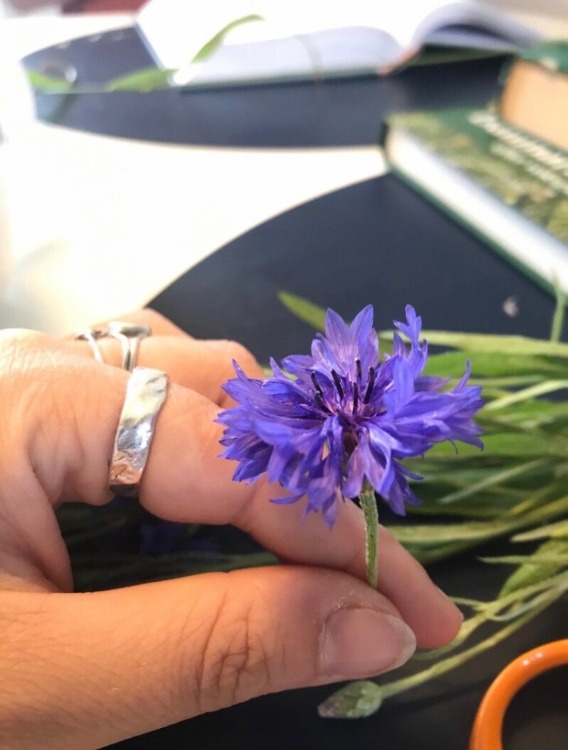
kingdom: Plantae
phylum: Tracheophyta
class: Magnoliopsida
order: Asterales
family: Asteraceae
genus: Centaurea
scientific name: Centaurea cyanus
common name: Kornblomst
